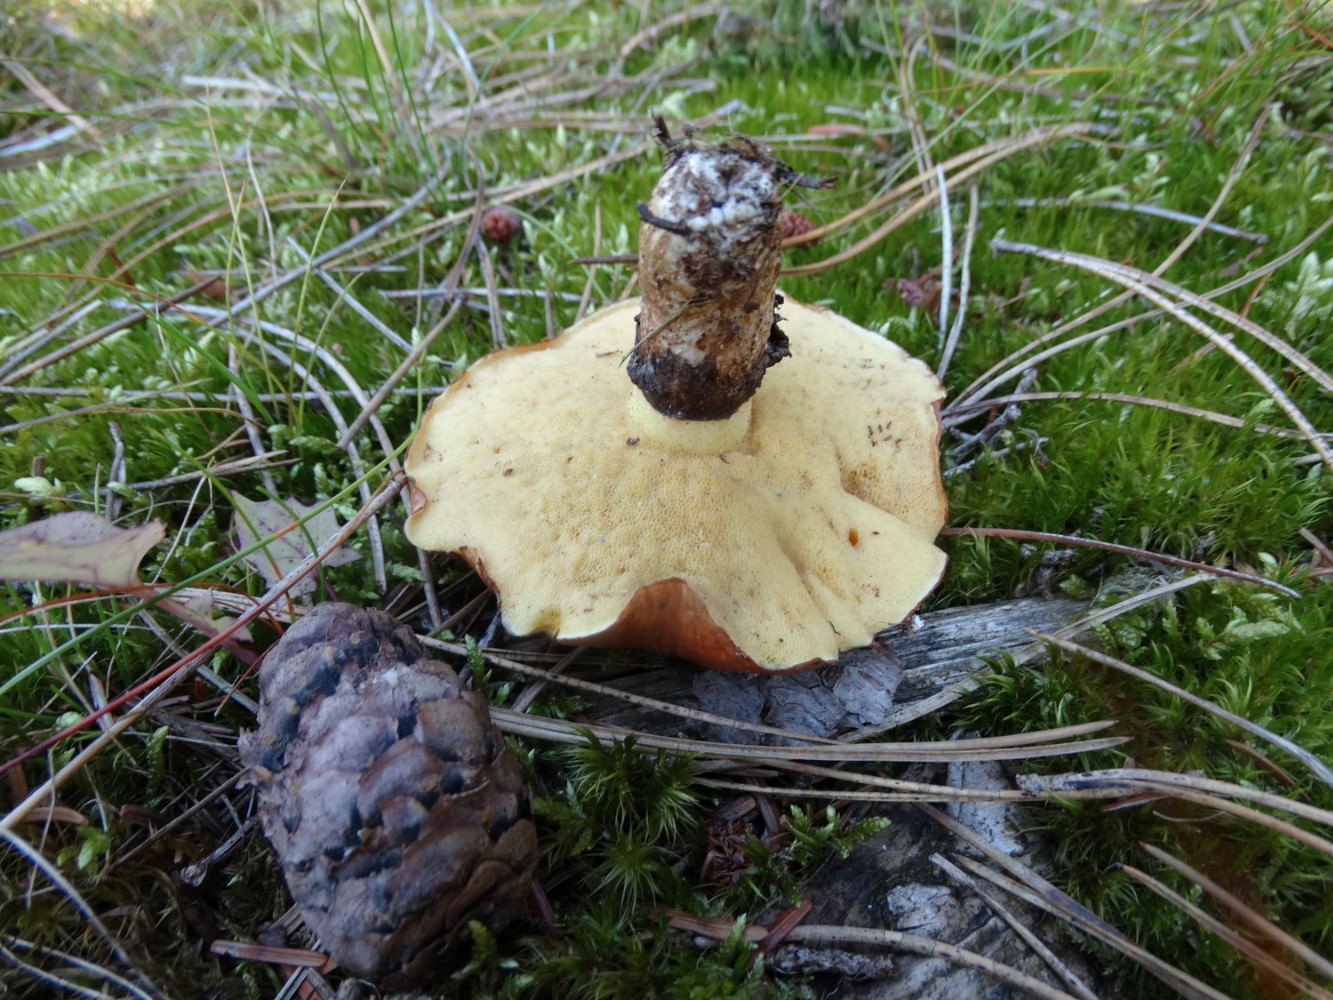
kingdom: Fungi
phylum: Basidiomycota
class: Agaricomycetes
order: Boletales
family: Suillaceae
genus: Suillus
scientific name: Suillus luteus
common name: brungul slimrørhat
